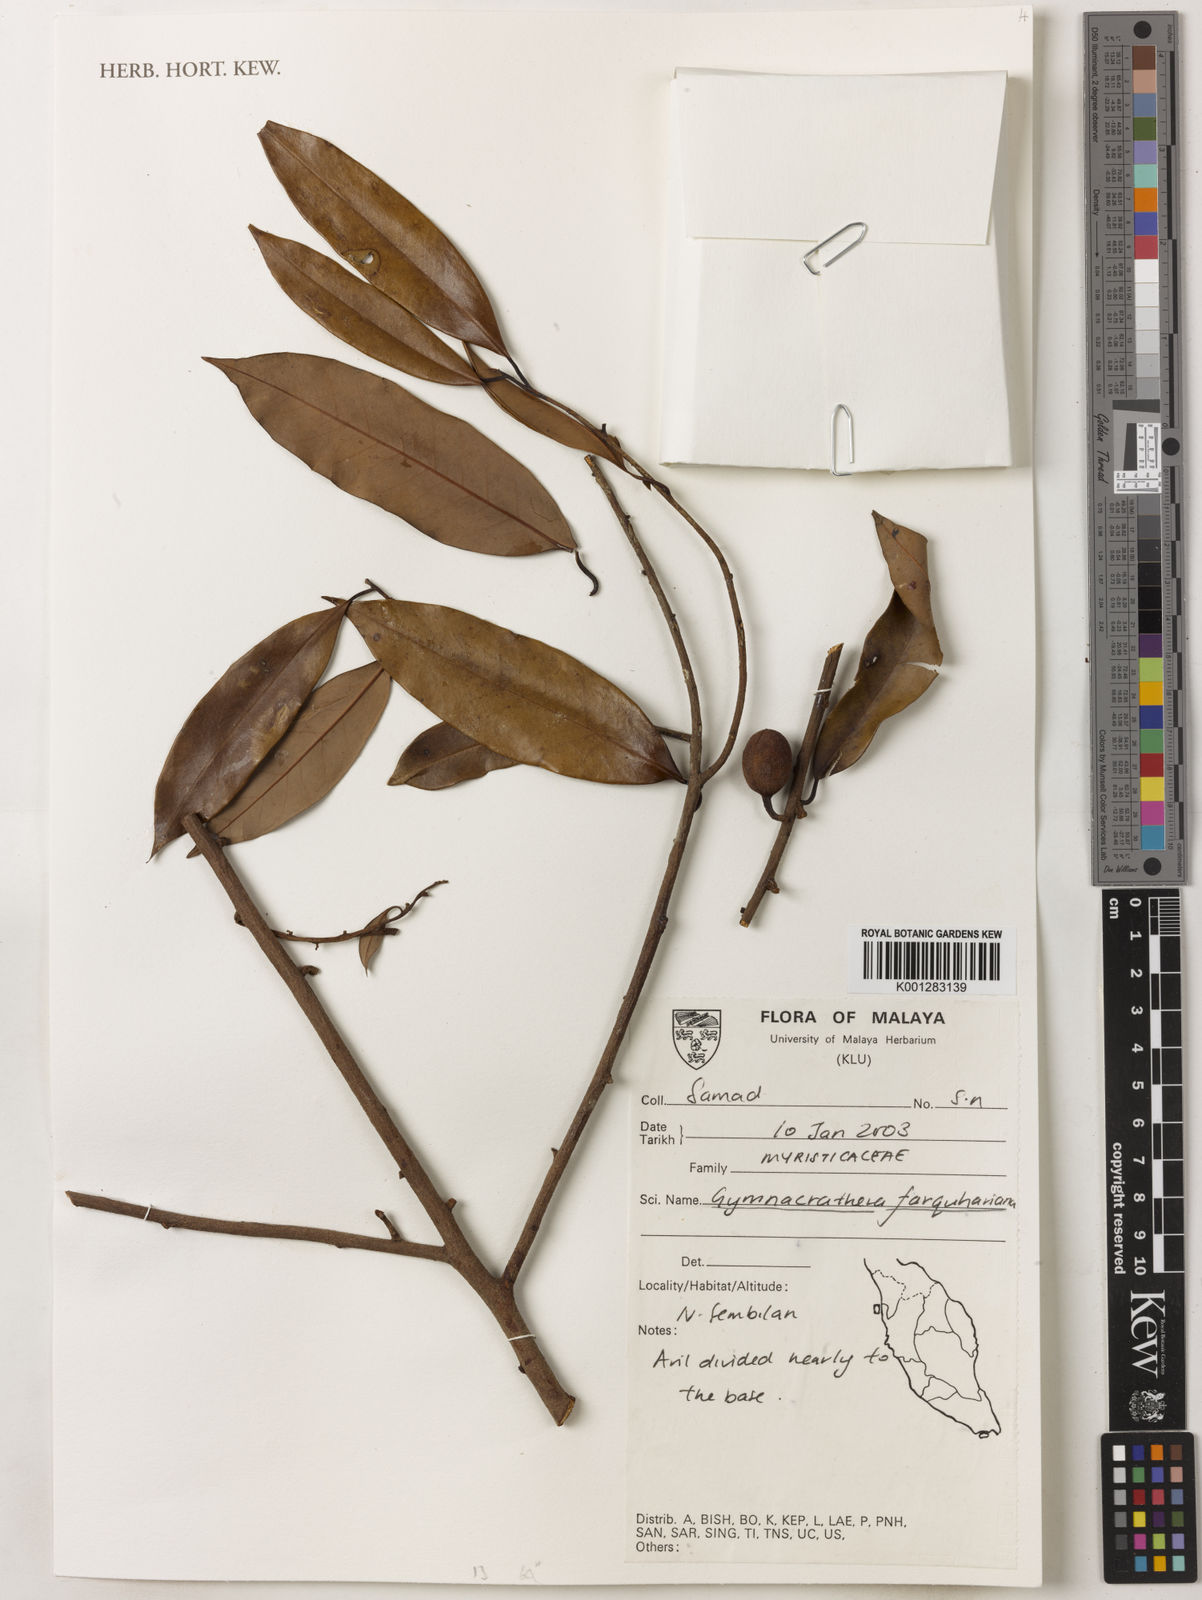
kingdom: Plantae
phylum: Tracheophyta
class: Magnoliopsida
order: Magnoliales
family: Myristicaceae
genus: Gymnacranthera
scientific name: Gymnacranthera farquhariana
